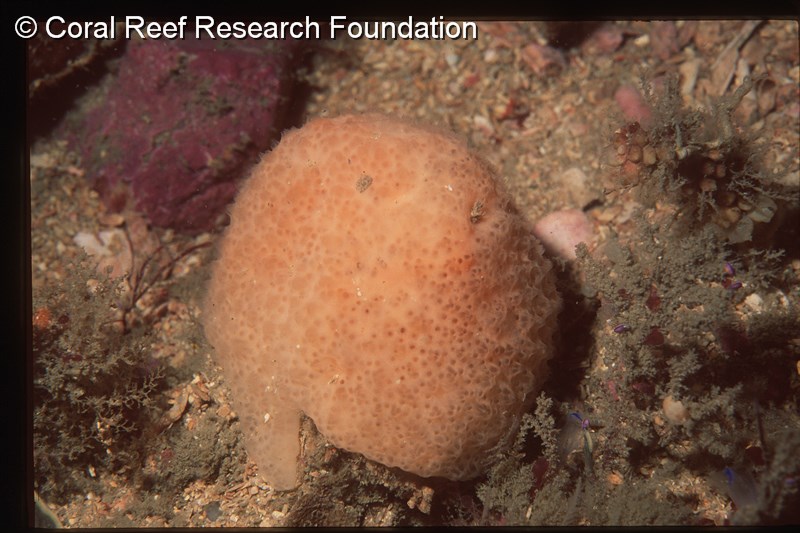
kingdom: Animalia
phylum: Chordata
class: Ascidiacea
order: Aplousobranchia
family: Polycitoridae
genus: Eudistoma
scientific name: Eudistoma
